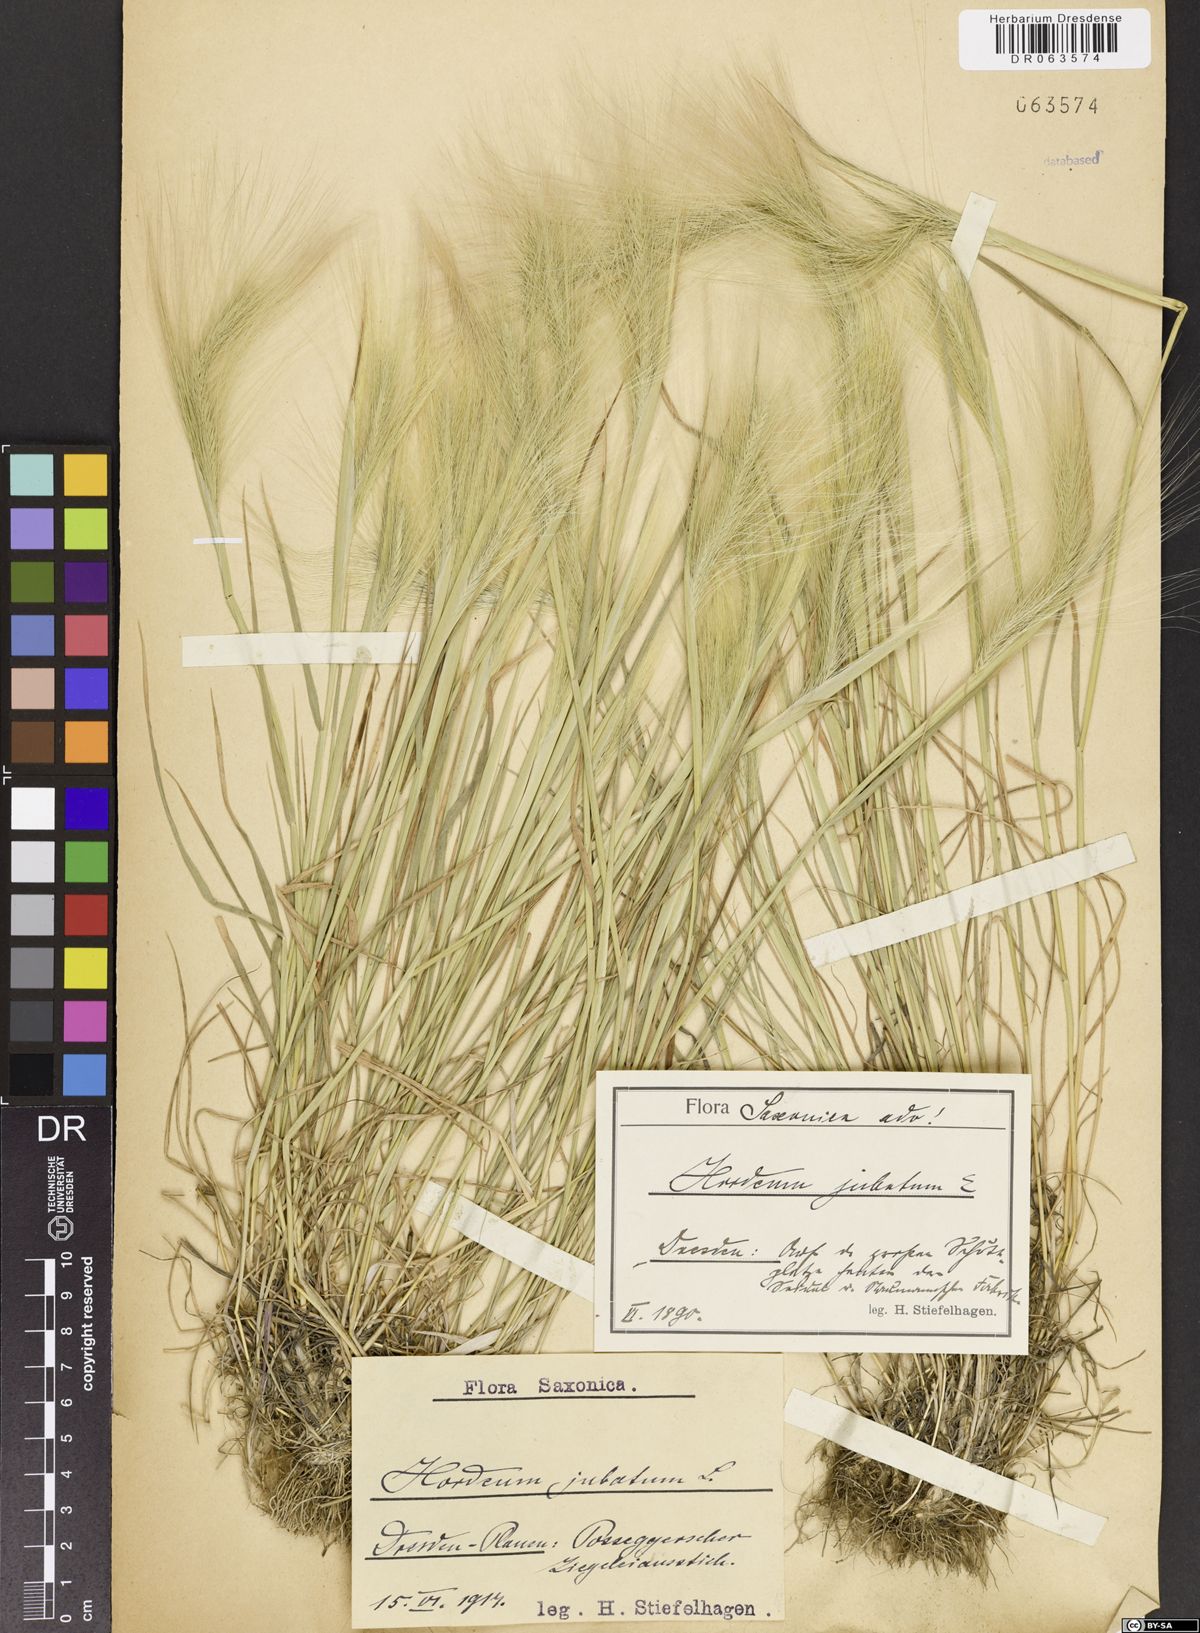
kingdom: Plantae
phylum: Tracheophyta
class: Liliopsida
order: Poales
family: Poaceae
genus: Hordeum
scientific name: Hordeum jubatum
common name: Foxtail barley
